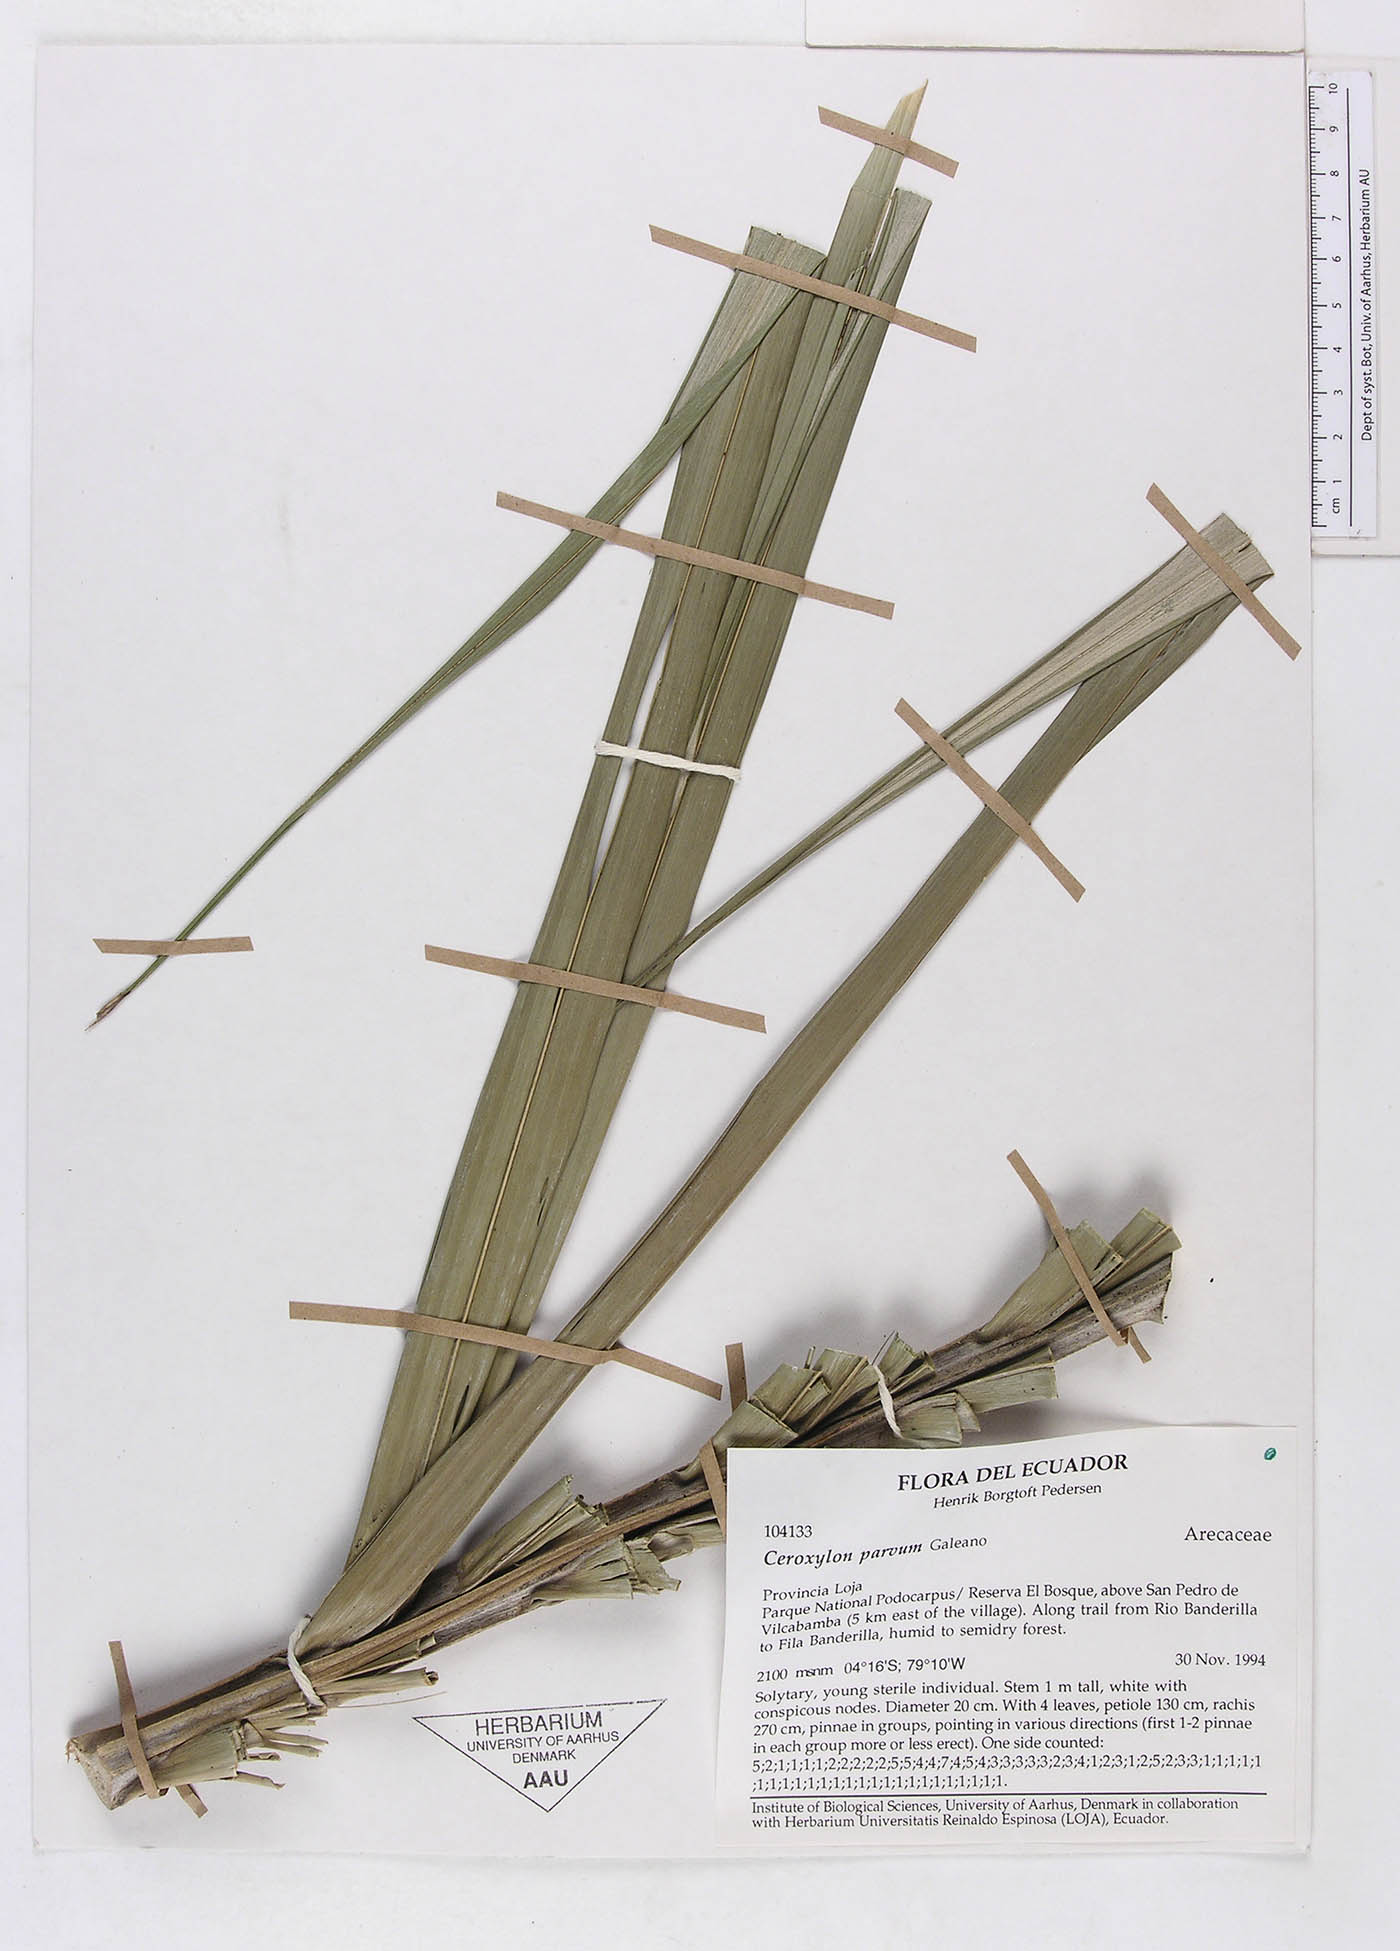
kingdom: Plantae
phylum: Tracheophyta
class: Liliopsida
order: Arecales
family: Arecaceae
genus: Ceroxylon
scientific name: Ceroxylon vogelianum
